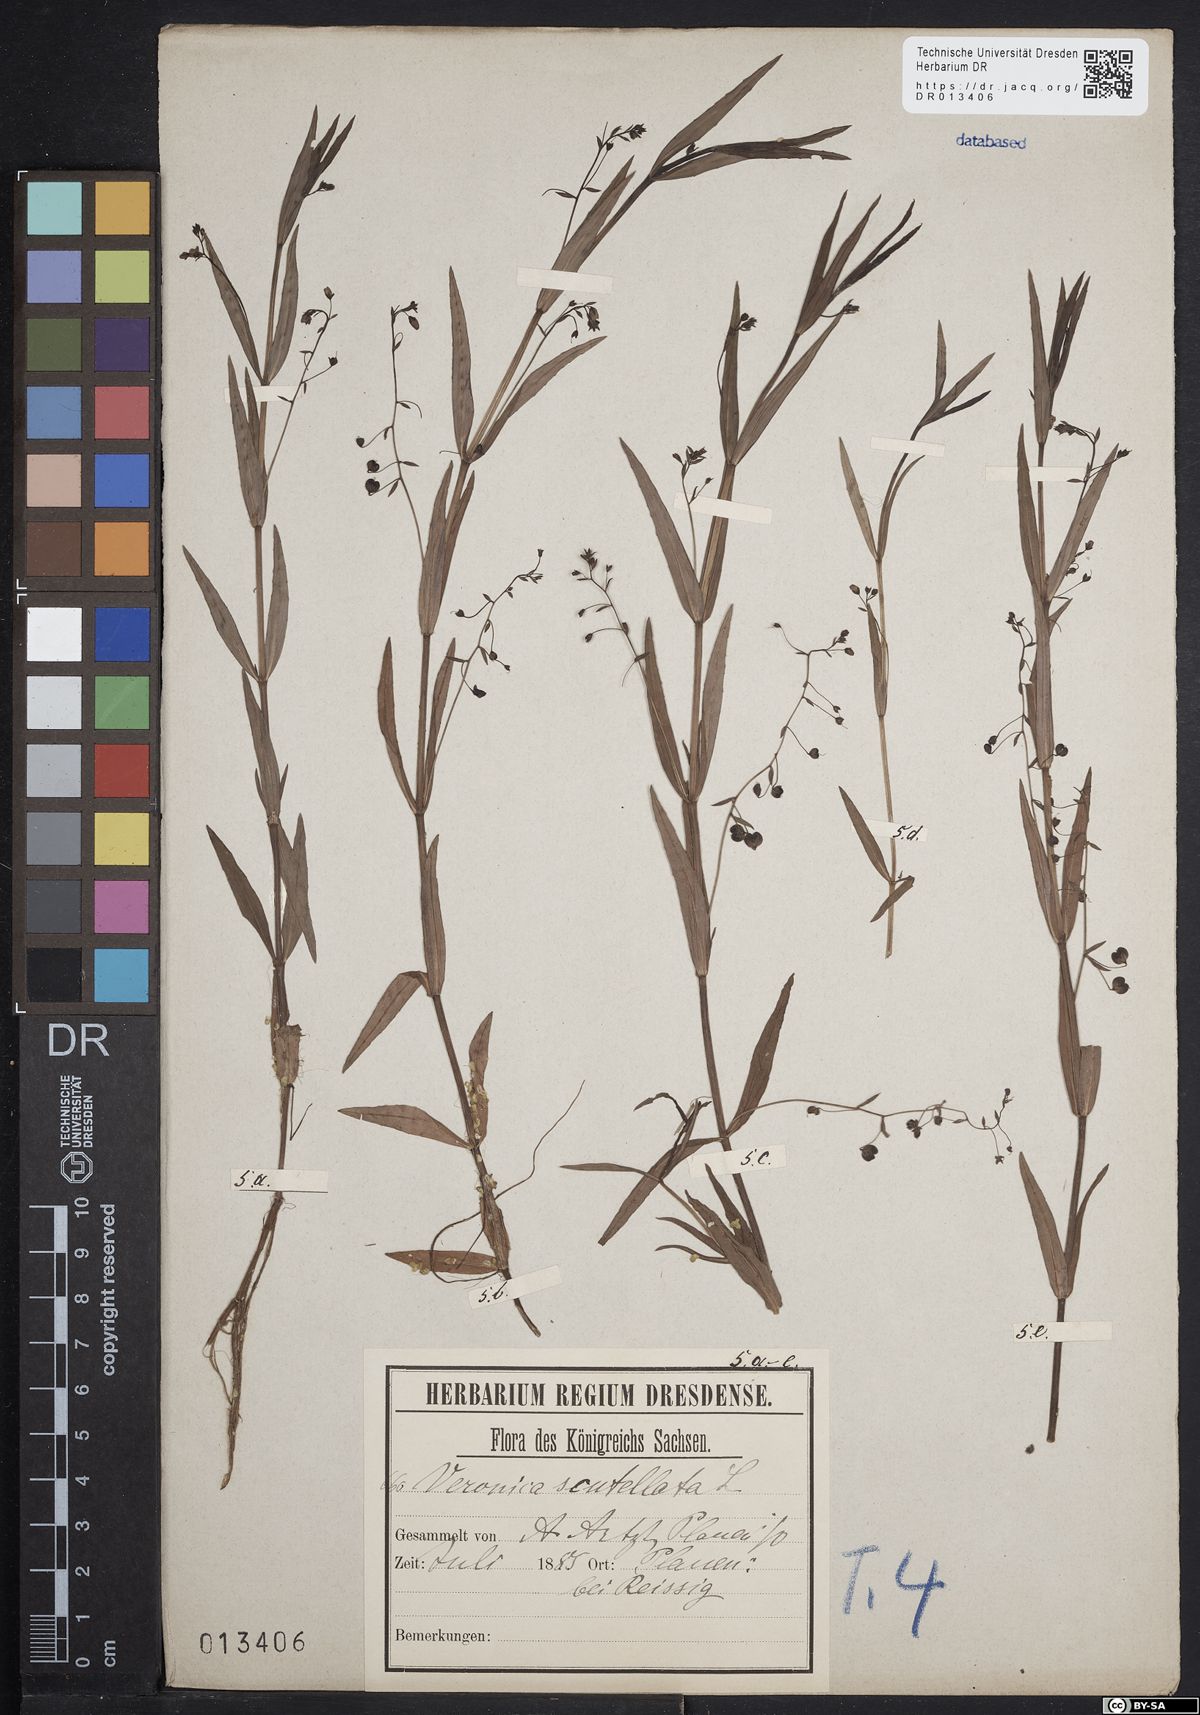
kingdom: Plantae
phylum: Tracheophyta
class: Magnoliopsida
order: Lamiales
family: Plantaginaceae
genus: Veronica
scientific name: Veronica scutellata
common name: Marsh speedwell
